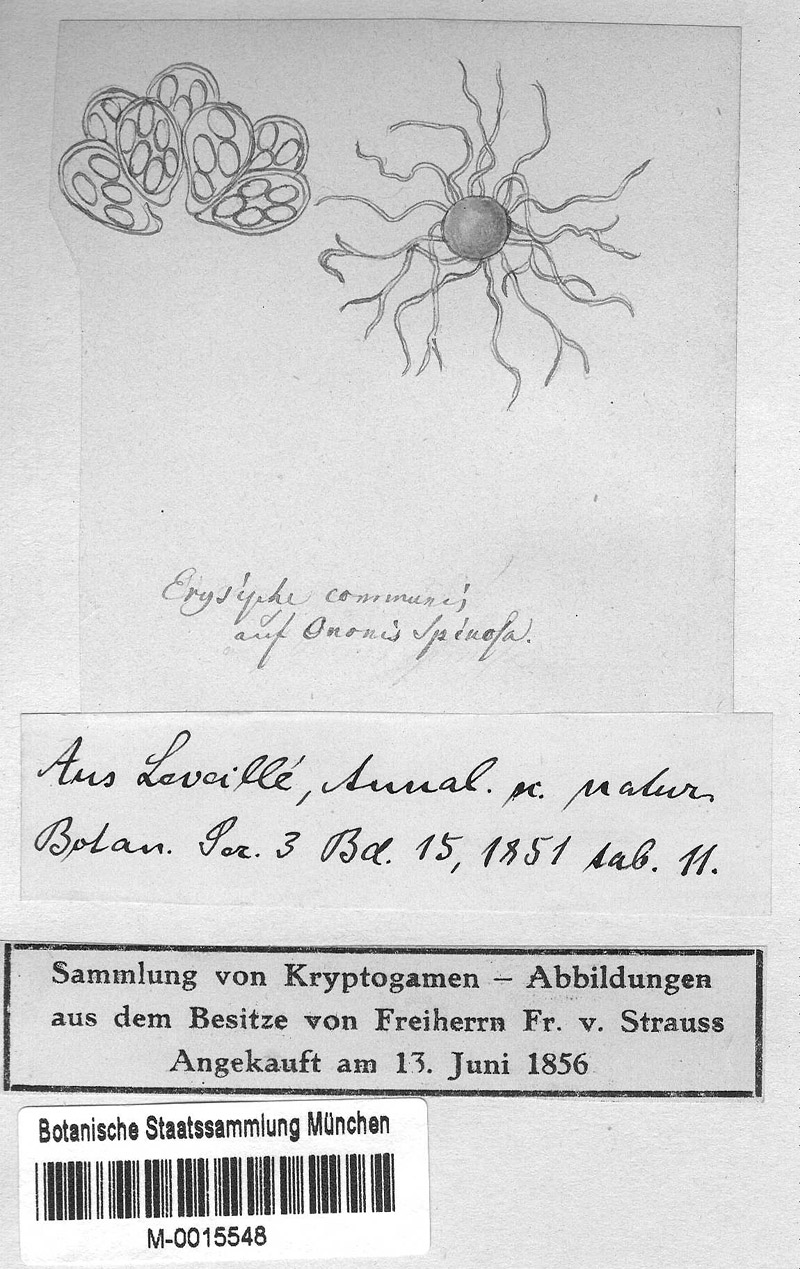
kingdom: Plantae
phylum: Tracheophyta
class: Magnoliopsida
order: Fabales
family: Fabaceae
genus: Ononis
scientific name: Ononis spinosa
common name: Spiny restharrow
